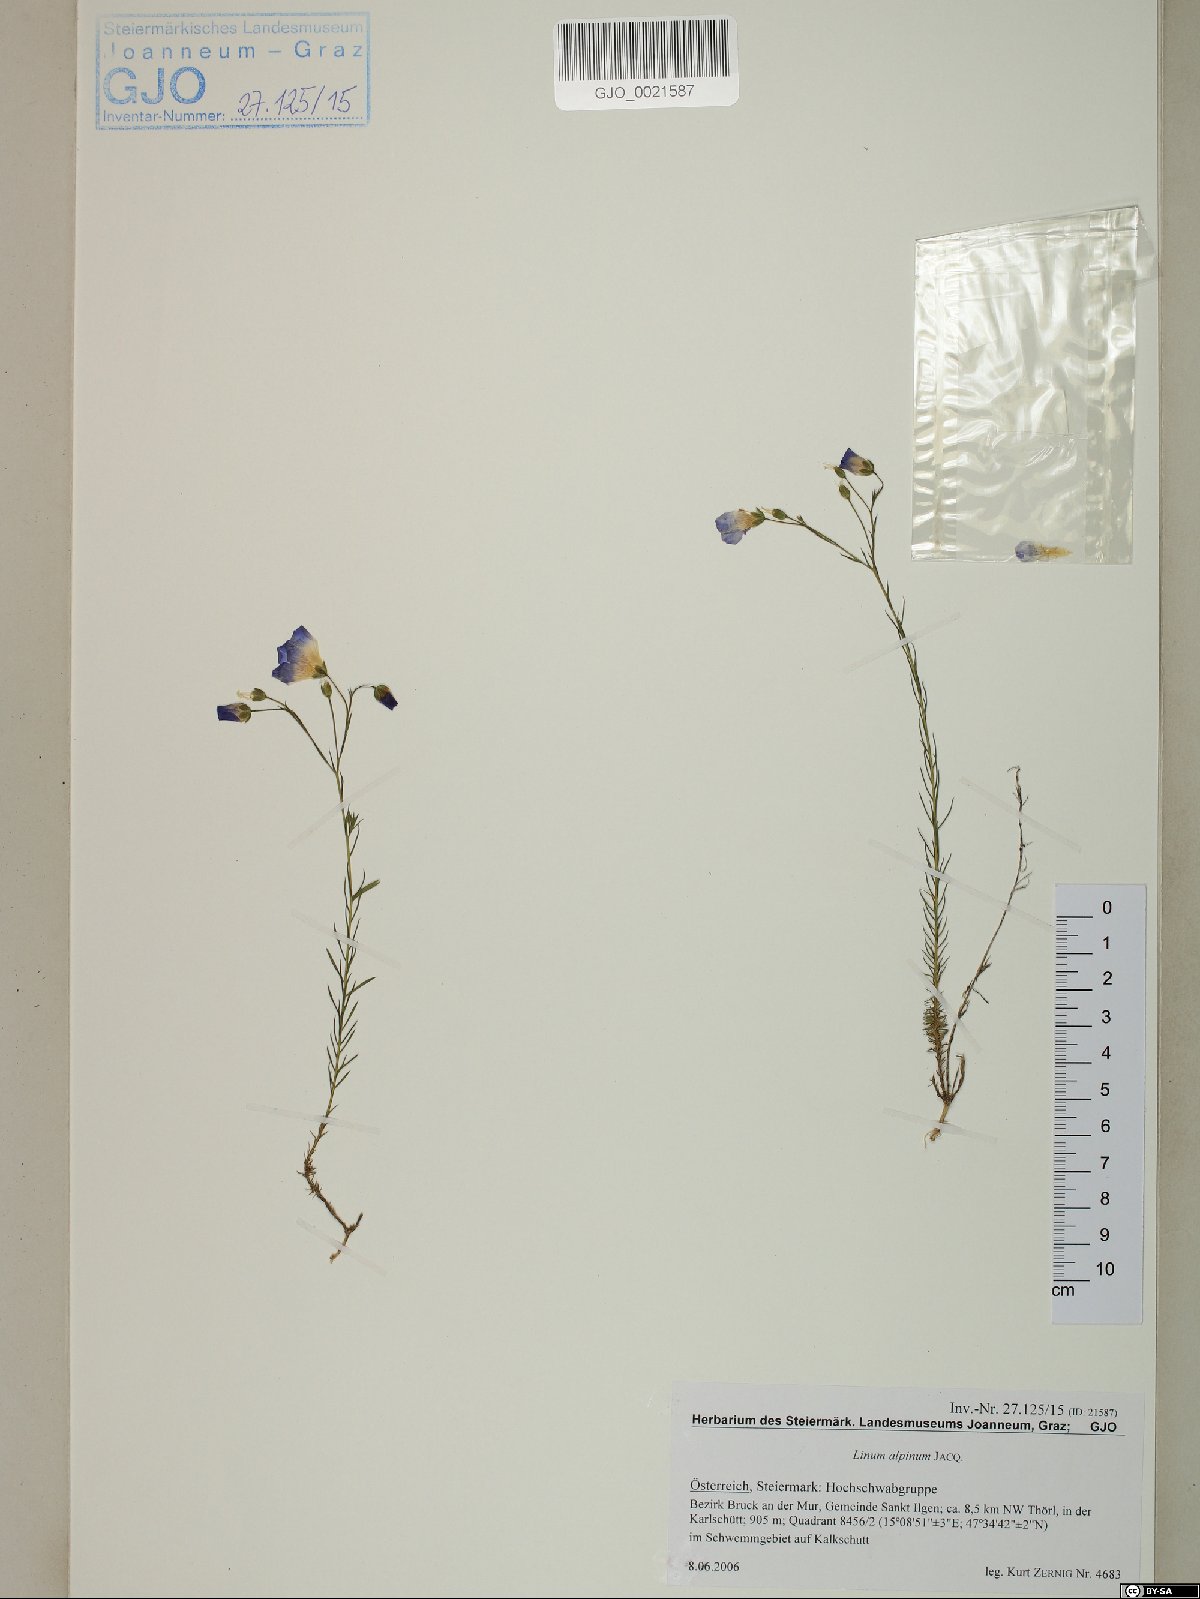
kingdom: Plantae
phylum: Tracheophyta
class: Magnoliopsida
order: Malpighiales
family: Linaceae
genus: Linum
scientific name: Linum alpinum
